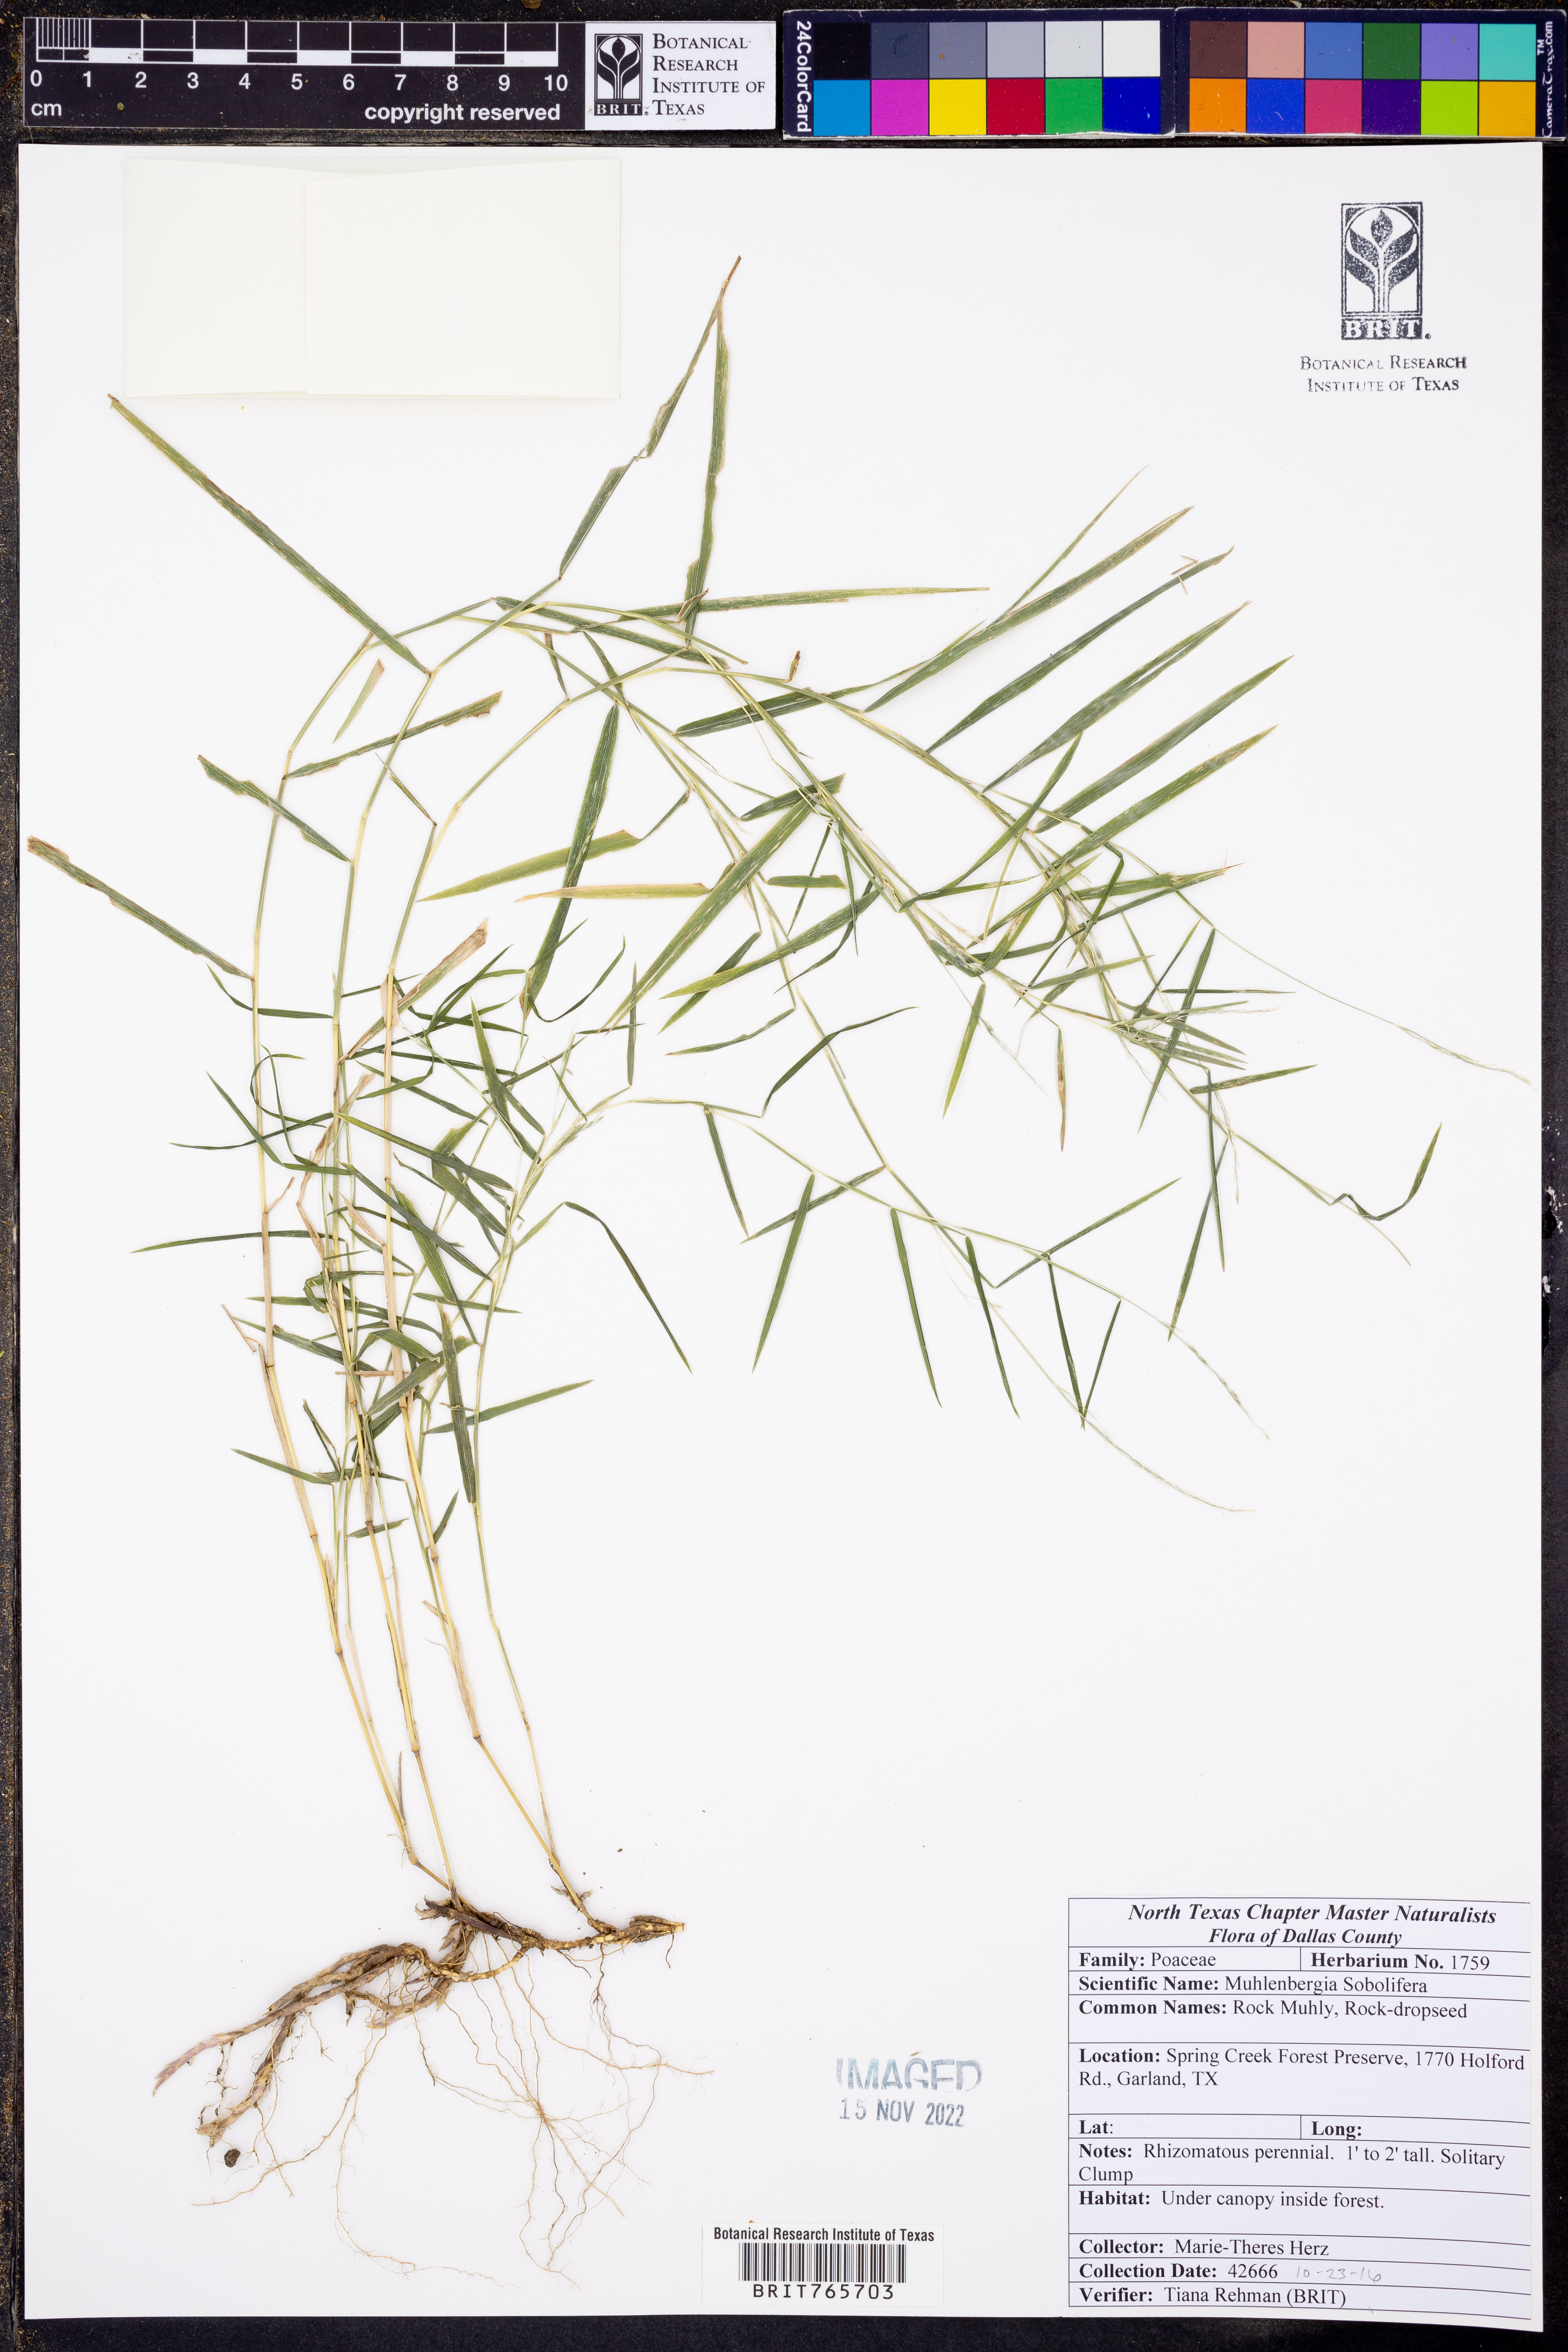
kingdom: Plantae
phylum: Tracheophyta
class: Liliopsida
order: Poales
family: Poaceae
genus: Muhlenbergia
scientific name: Muhlenbergia sobolifera
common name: Creeping muhly
